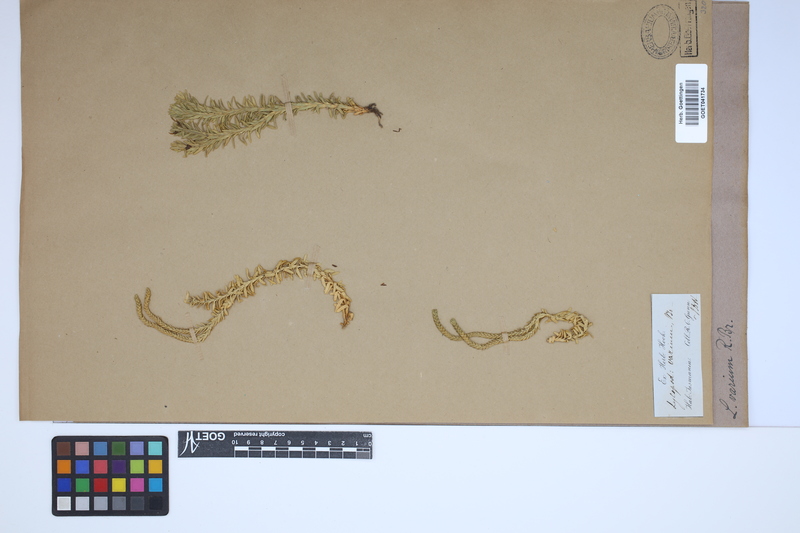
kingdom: Plantae
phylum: Tracheophyta
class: Lycopodiopsida
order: Lycopodiales
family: Lycopodiaceae
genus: Phlegmariurus
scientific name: Phlegmariurus varius
